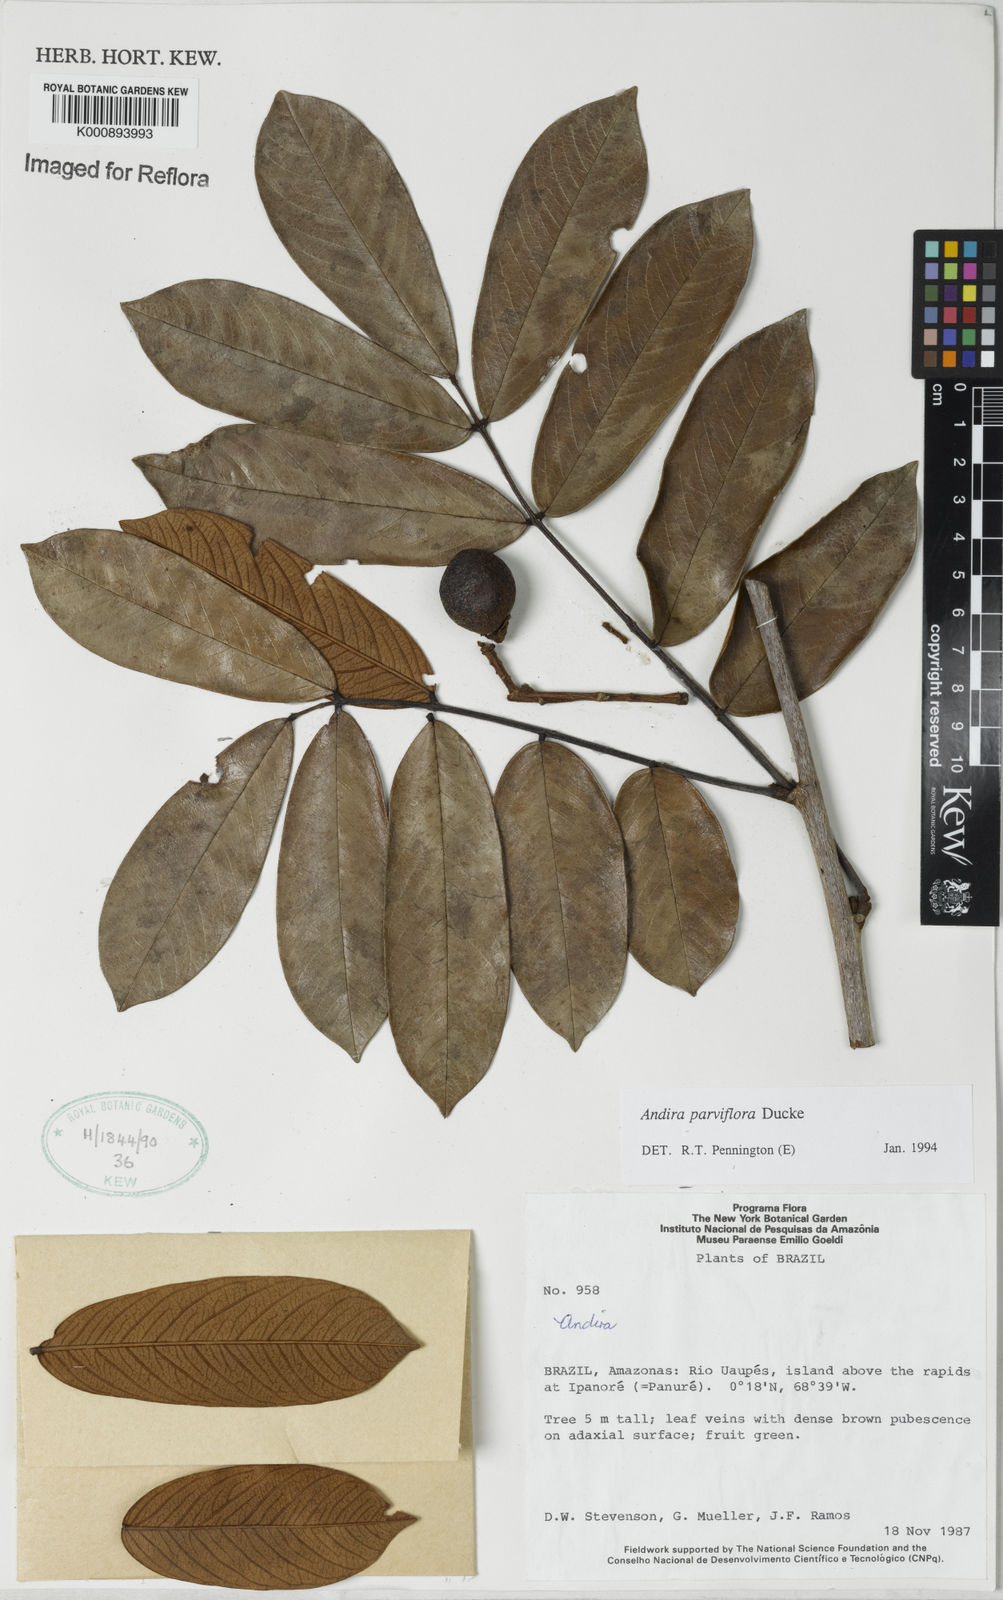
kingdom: Plantae
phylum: Tracheophyta
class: Magnoliopsida
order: Fabales
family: Fabaceae
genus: Andira
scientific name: Andira parviflora
